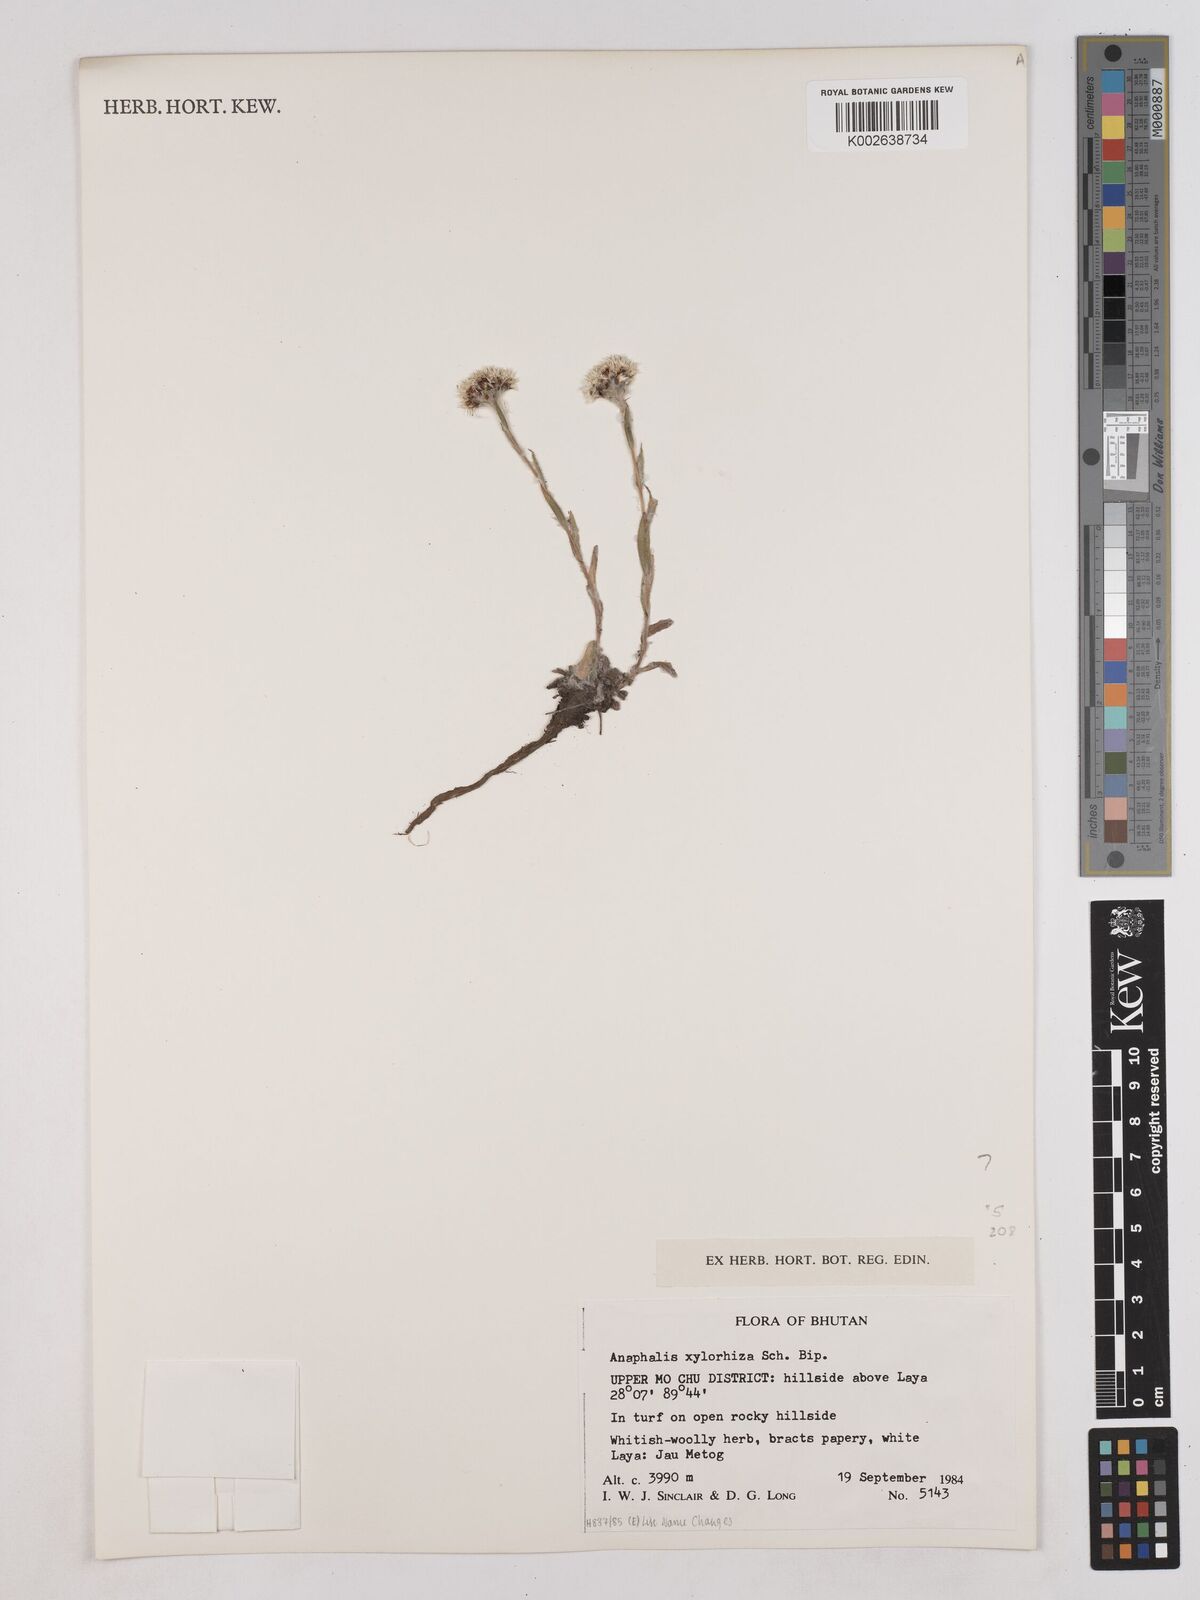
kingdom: Plantae
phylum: Tracheophyta
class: Magnoliopsida
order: Asterales
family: Asteraceae
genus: Anaphalis
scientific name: Anaphalis xylorhiza
